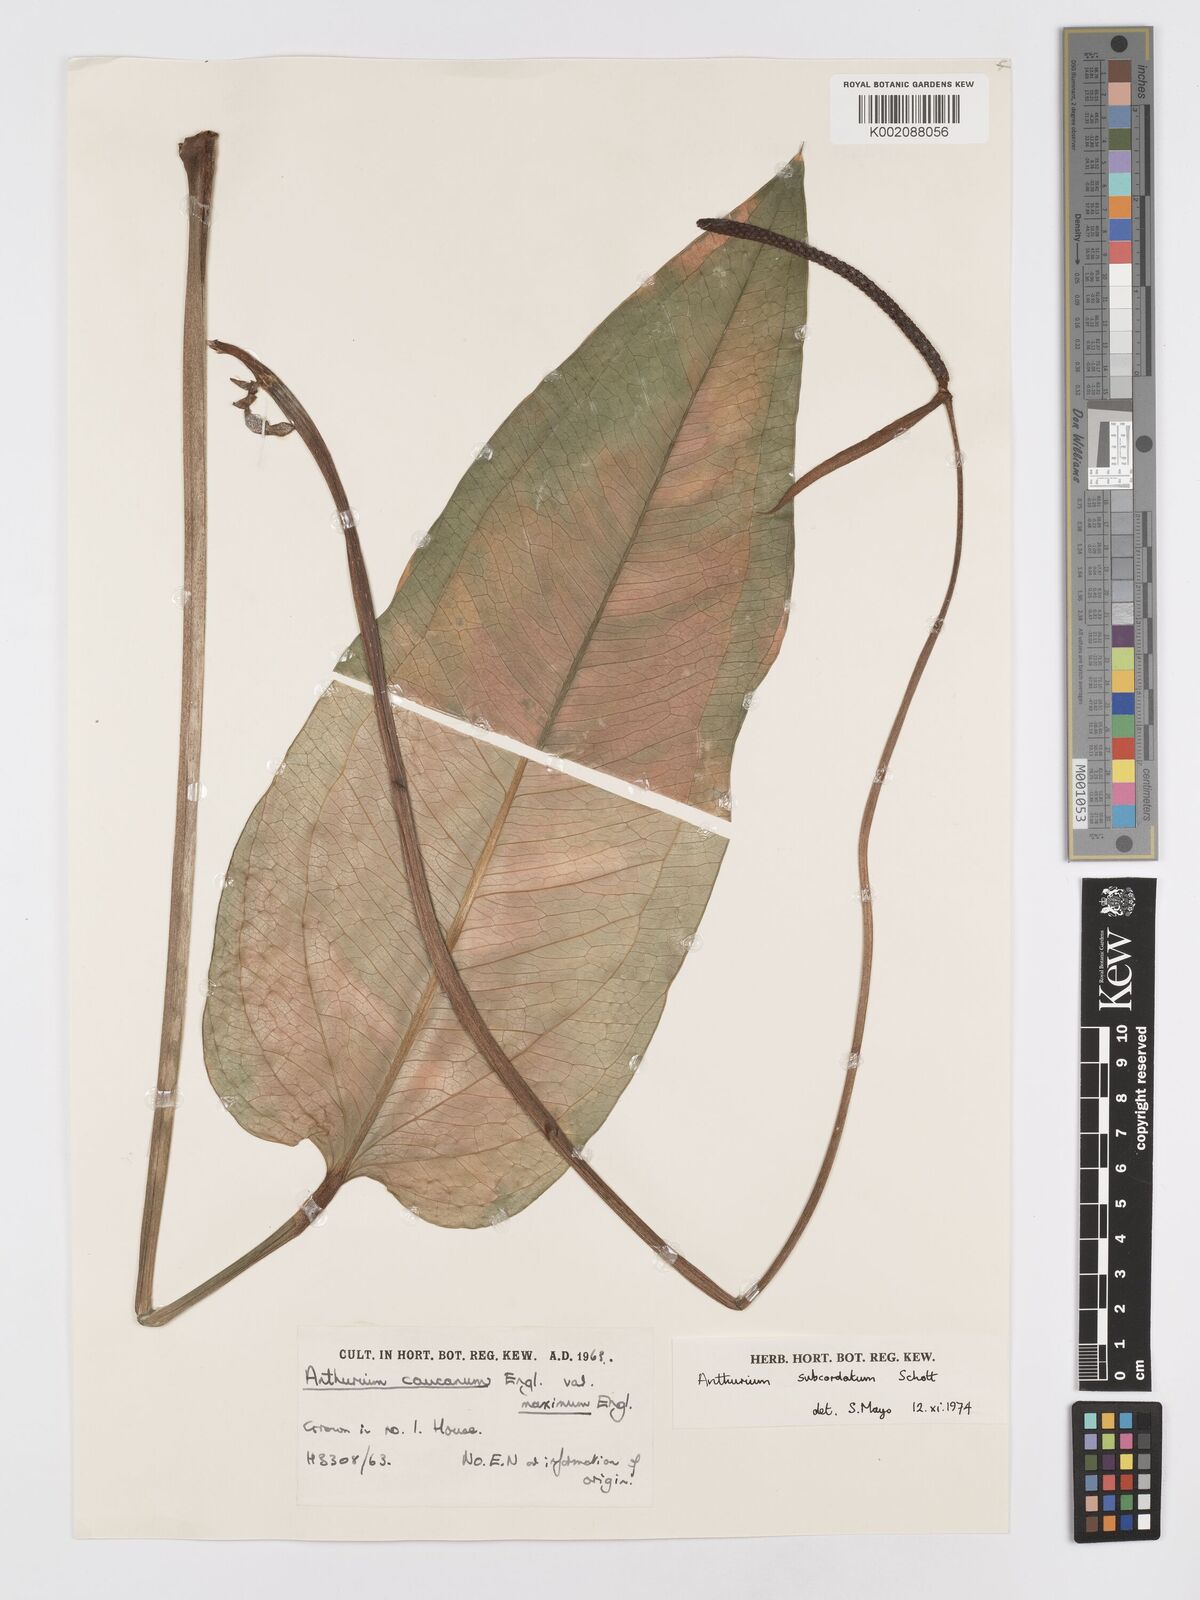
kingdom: Plantae
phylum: Tracheophyta
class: Liliopsida
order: Alismatales
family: Araceae
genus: Anthurium
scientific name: Anthurium subcordatum
